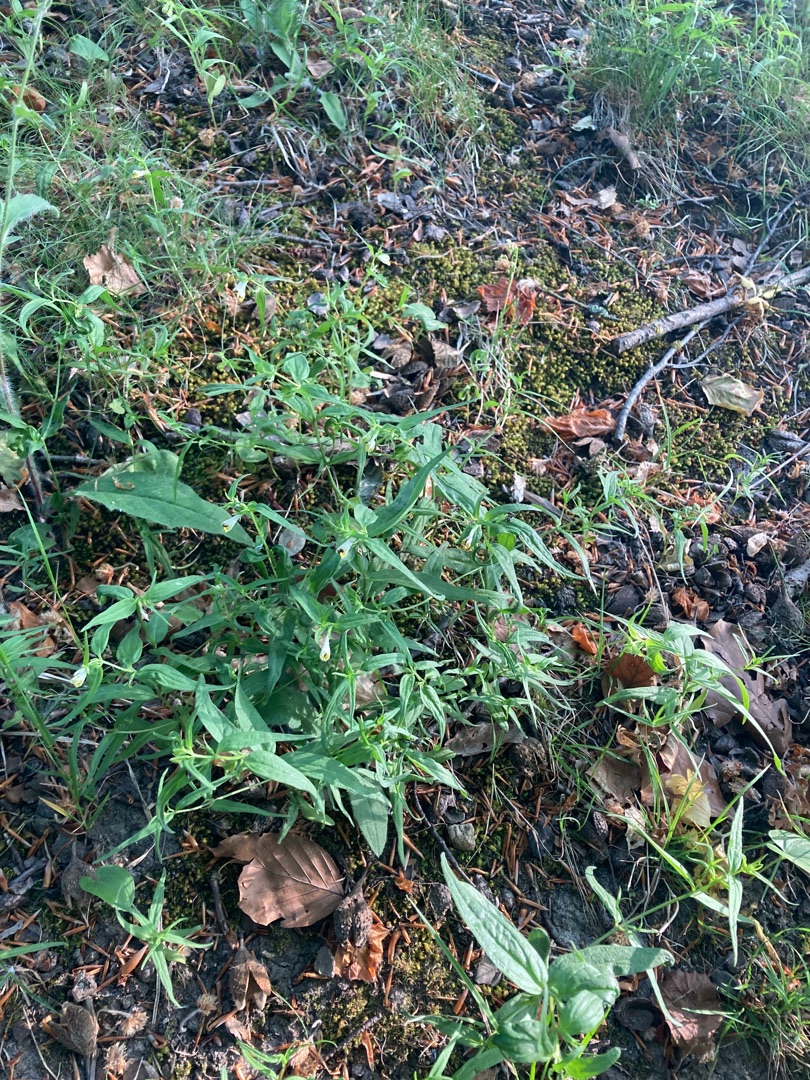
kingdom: Plantae
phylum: Tracheophyta
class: Magnoliopsida
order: Lamiales
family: Orobanchaceae
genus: Melampyrum
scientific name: Melampyrum pratense
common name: Almindelig kohvede
